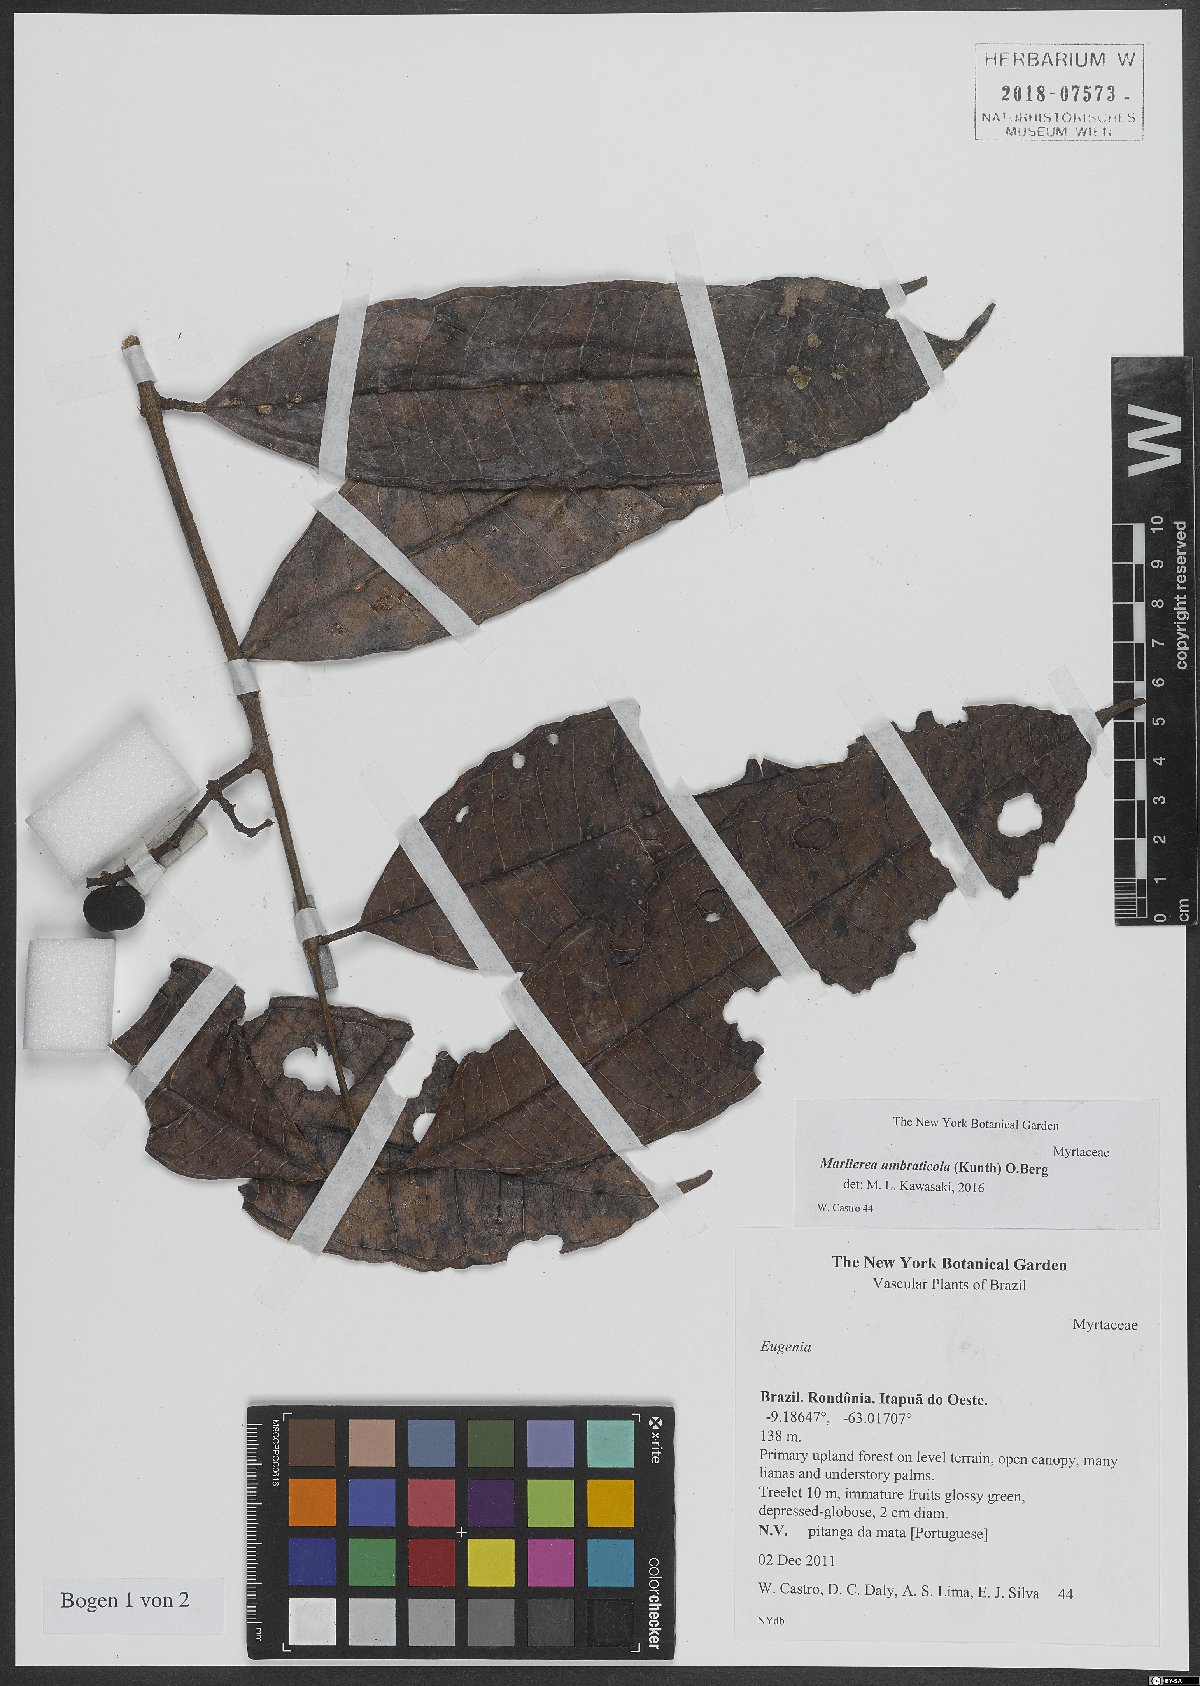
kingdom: Plantae
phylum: Tracheophyta
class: Magnoliopsida
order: Myrtales
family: Myrtaceae
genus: Myrcia
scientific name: Myrcia umbraticola
